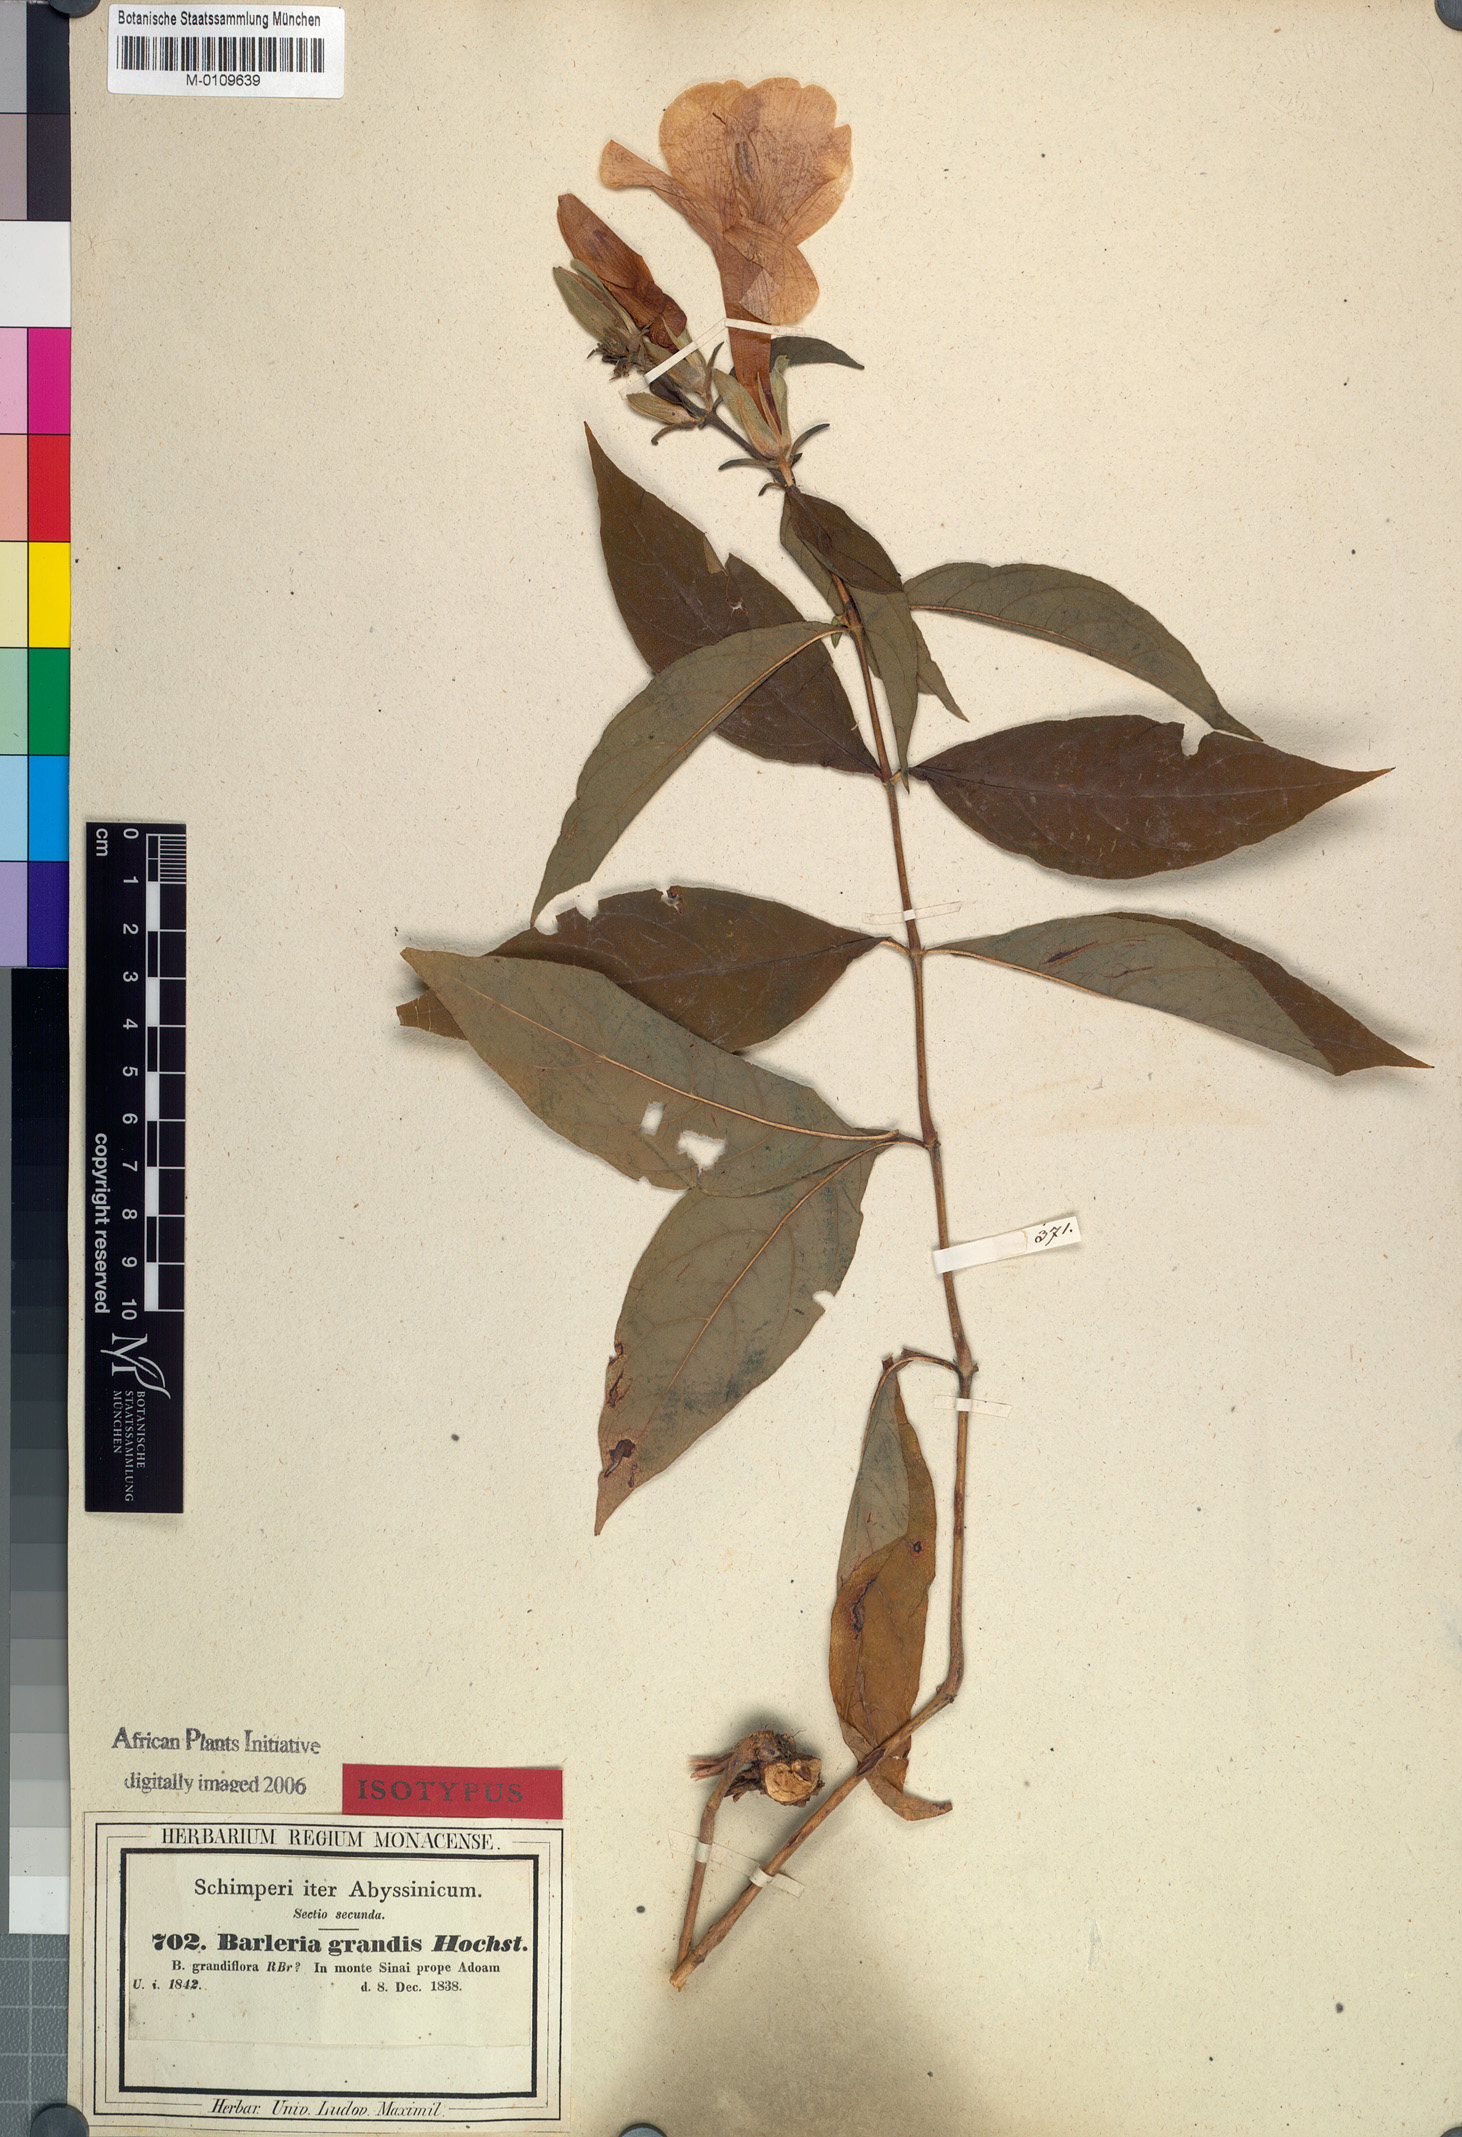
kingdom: Plantae
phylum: Tracheophyta
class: Magnoliopsida
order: Lamiales
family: Acanthaceae
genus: Barleria
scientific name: Barleria grandis
